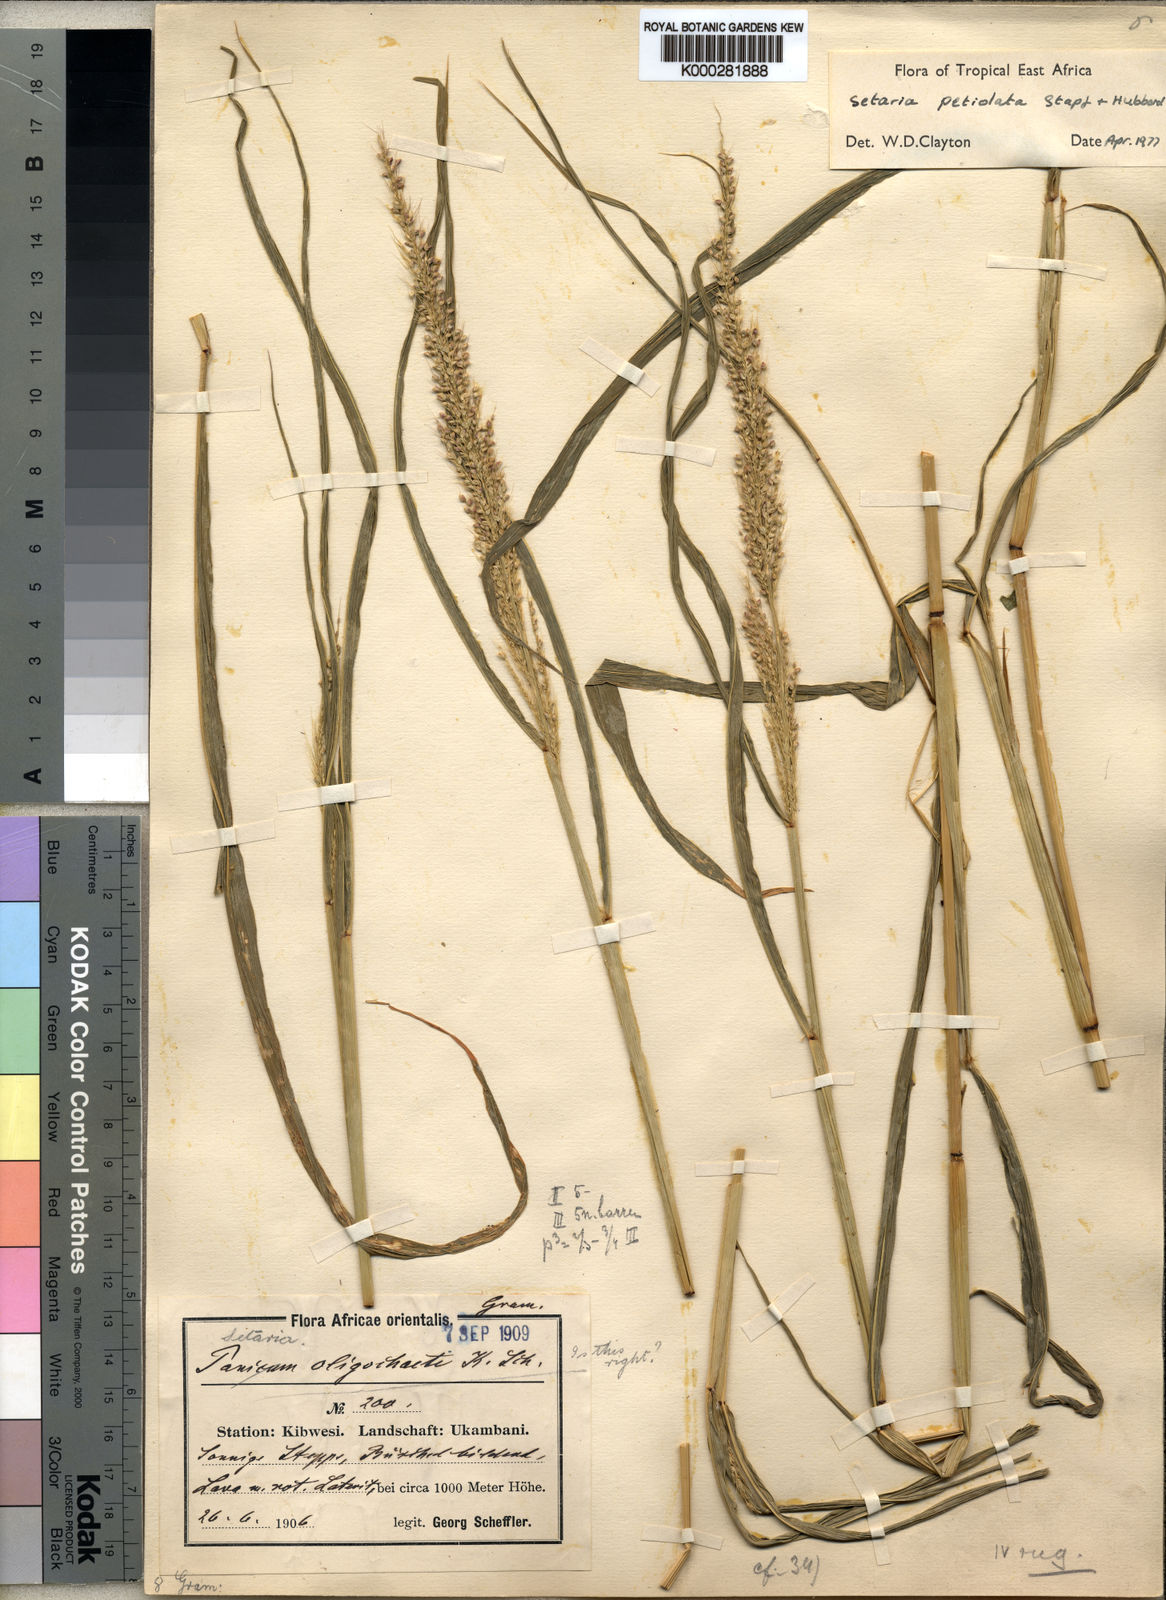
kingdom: Plantae
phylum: Tracheophyta
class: Liliopsida
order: Poales
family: Poaceae
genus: Setaria
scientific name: Setaria petiolata
